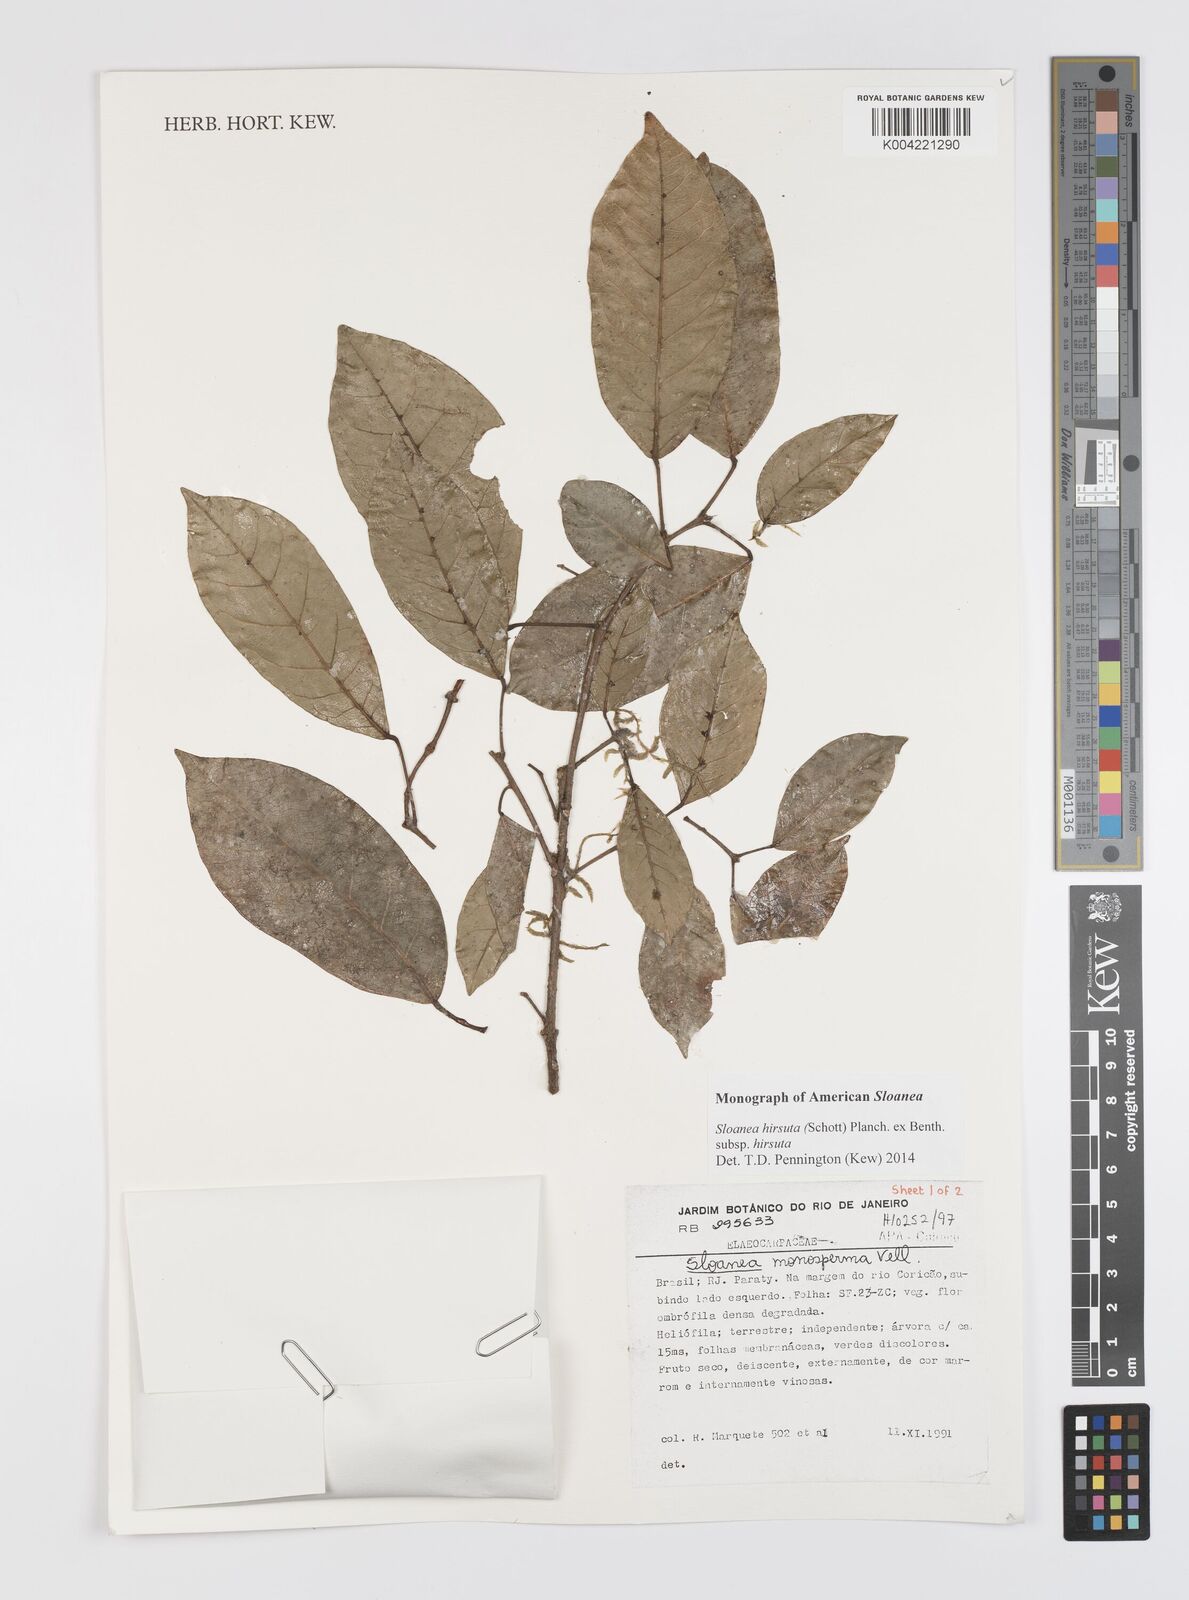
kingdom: Plantae
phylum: Tracheophyta
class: Magnoliopsida
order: Oxalidales
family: Elaeocarpaceae
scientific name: Elaeocarpaceae
